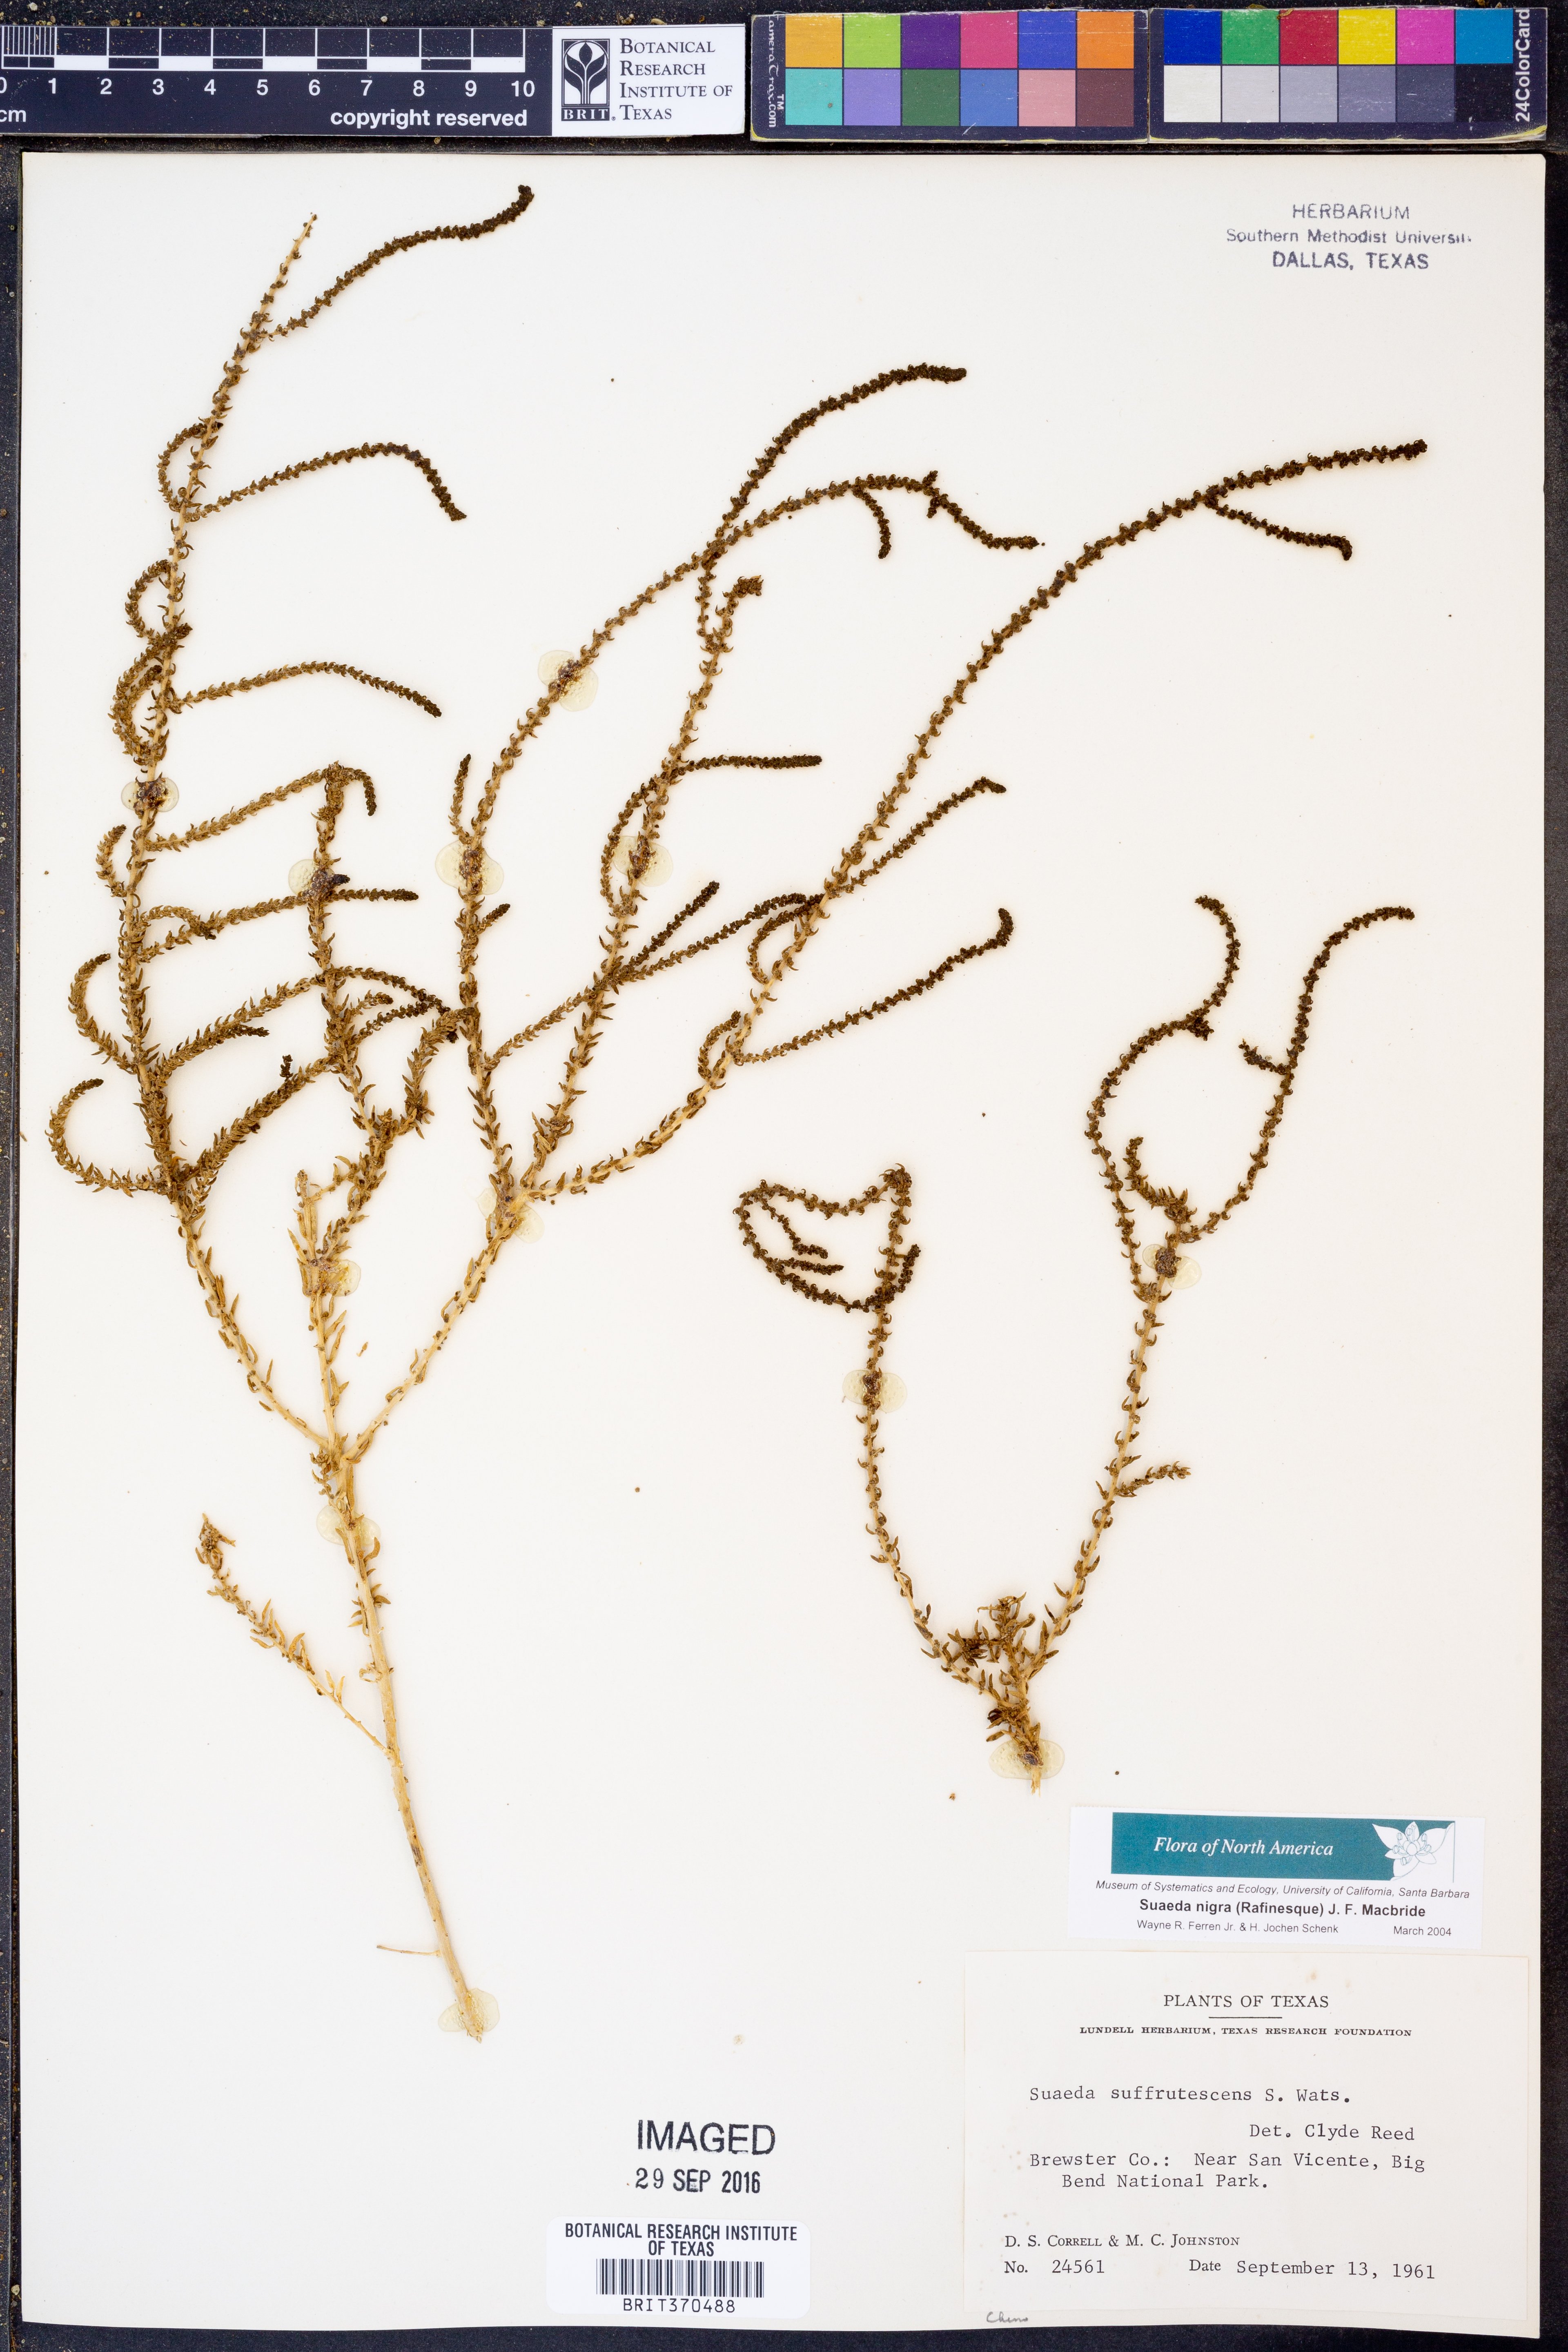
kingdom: Plantae
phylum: Tracheophyta
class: Magnoliopsida
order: Caryophyllales
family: Amaranthaceae
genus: Suaeda
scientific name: Suaeda nigra
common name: Bush seepweed
